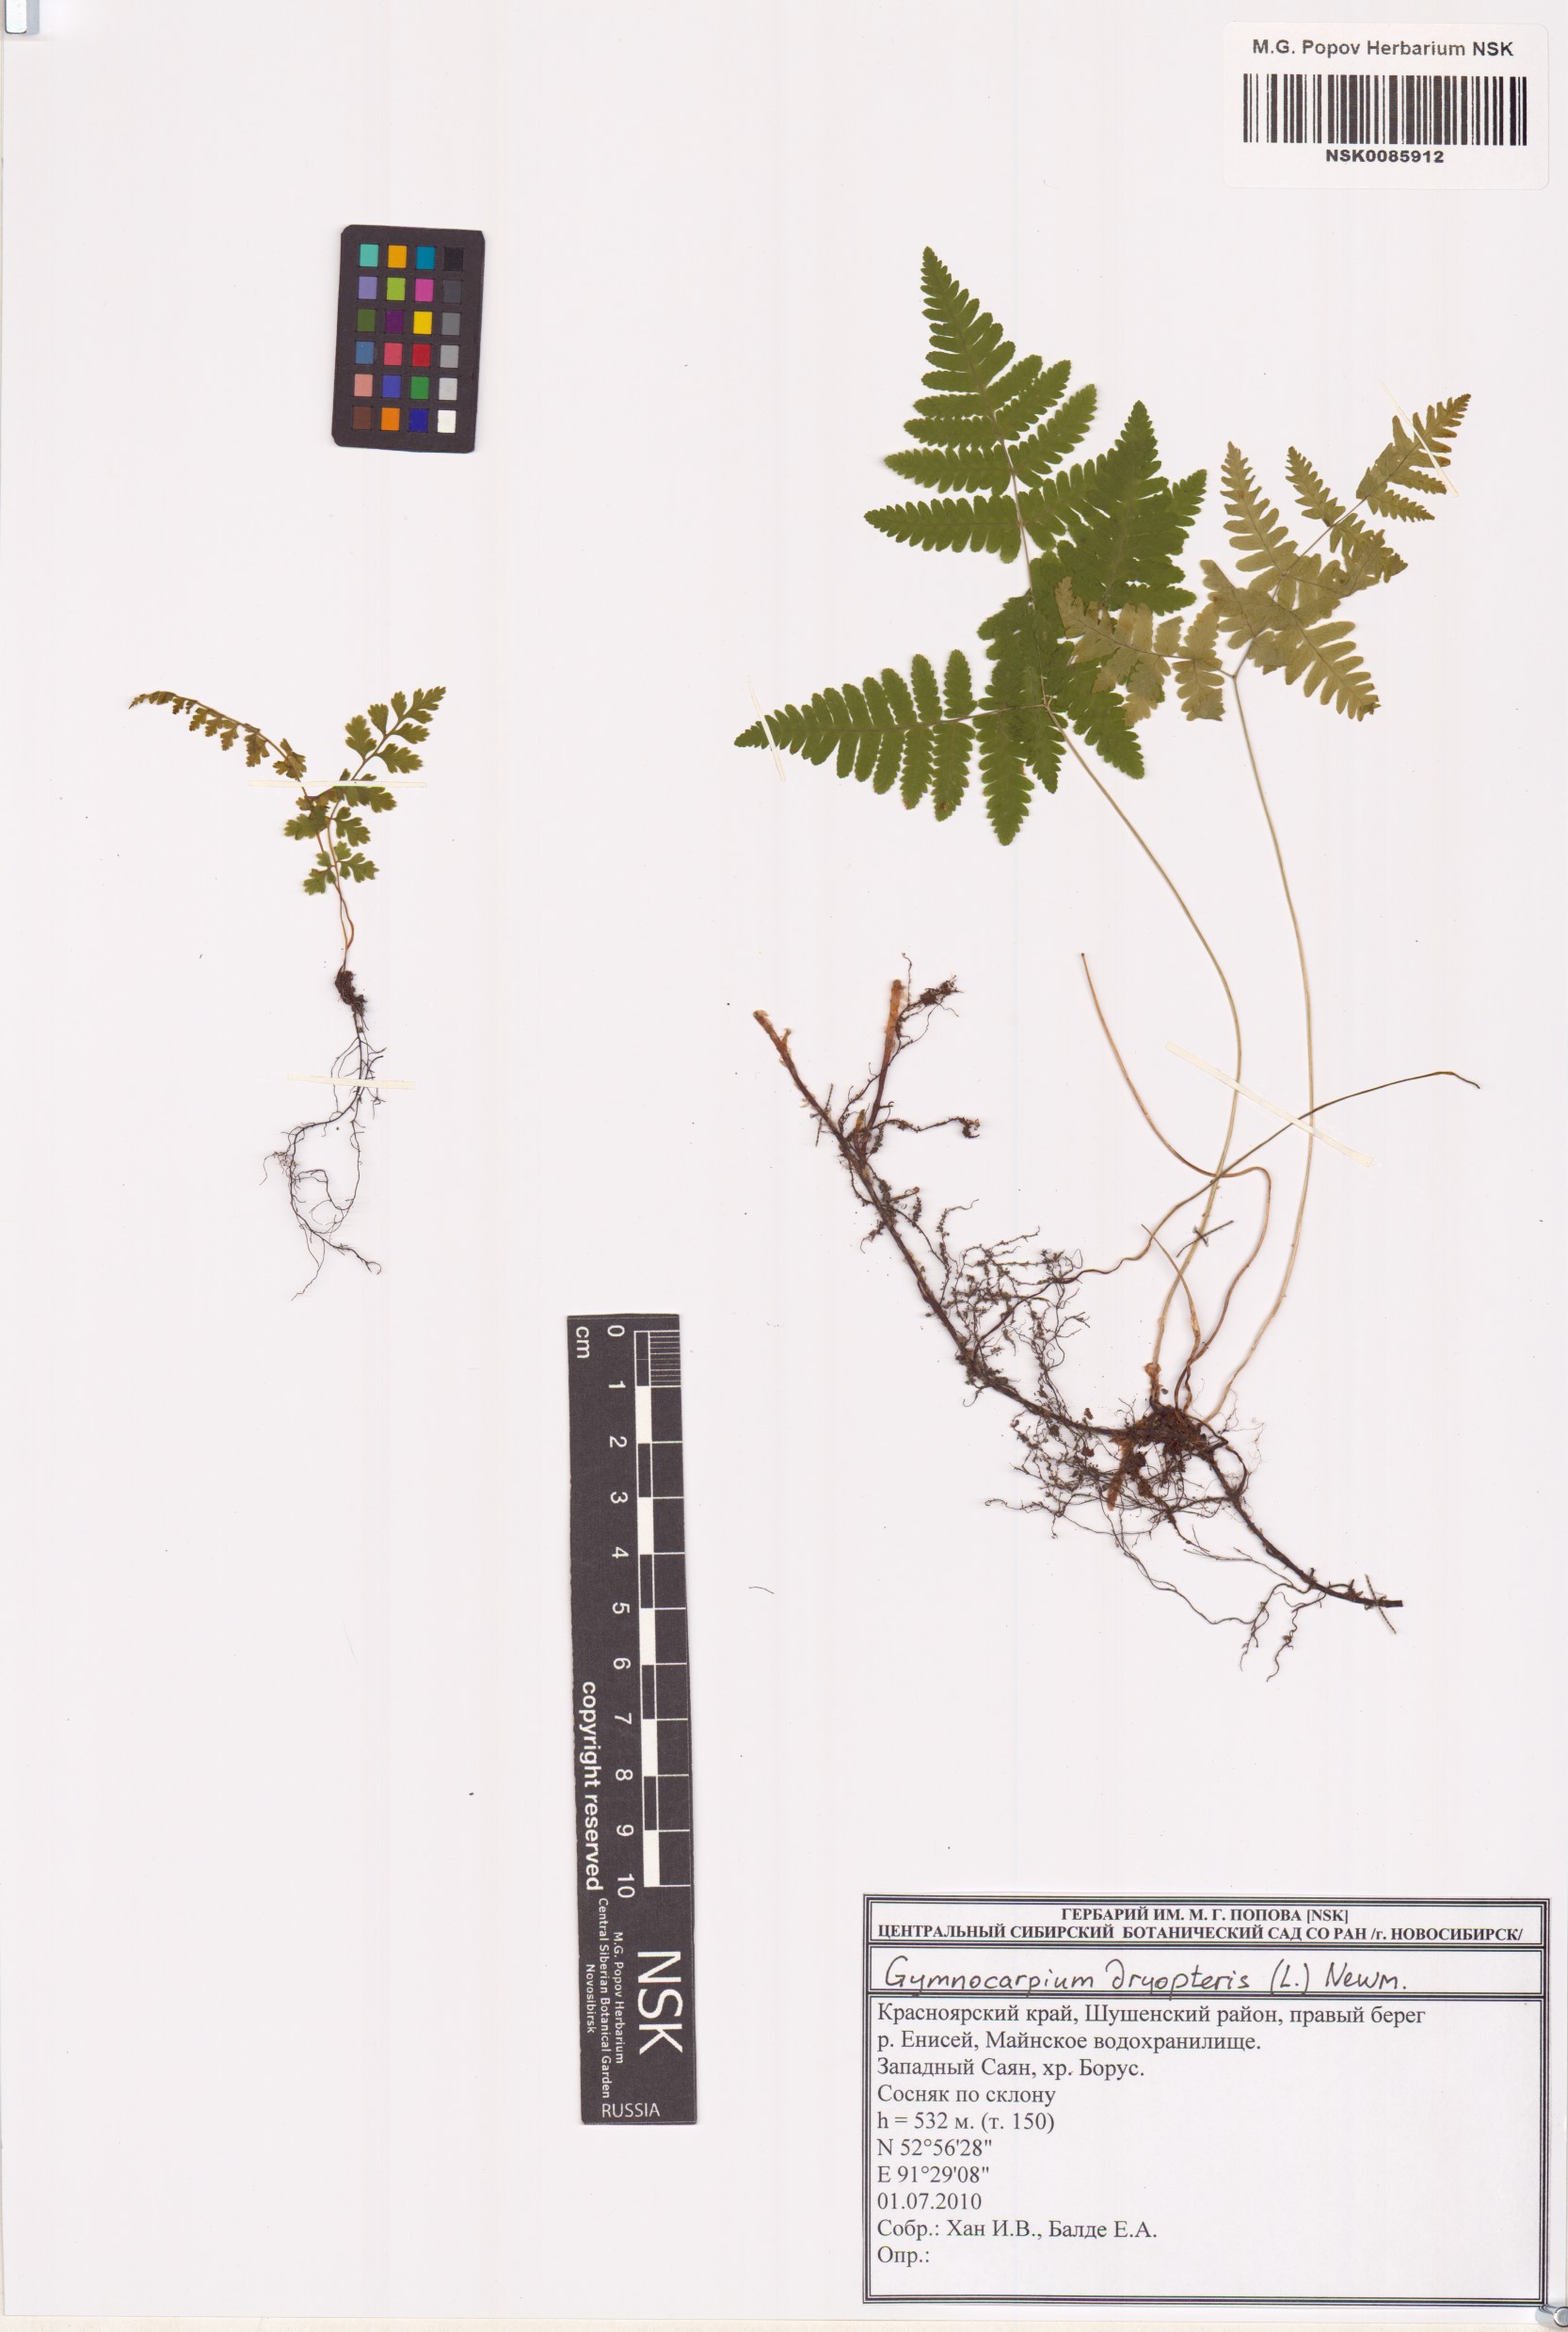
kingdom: Plantae
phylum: Tracheophyta
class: Polypodiopsida
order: Polypodiales
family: Cystopteridaceae
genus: Gymnocarpium
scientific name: Gymnocarpium dryopteris
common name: Oak fern
